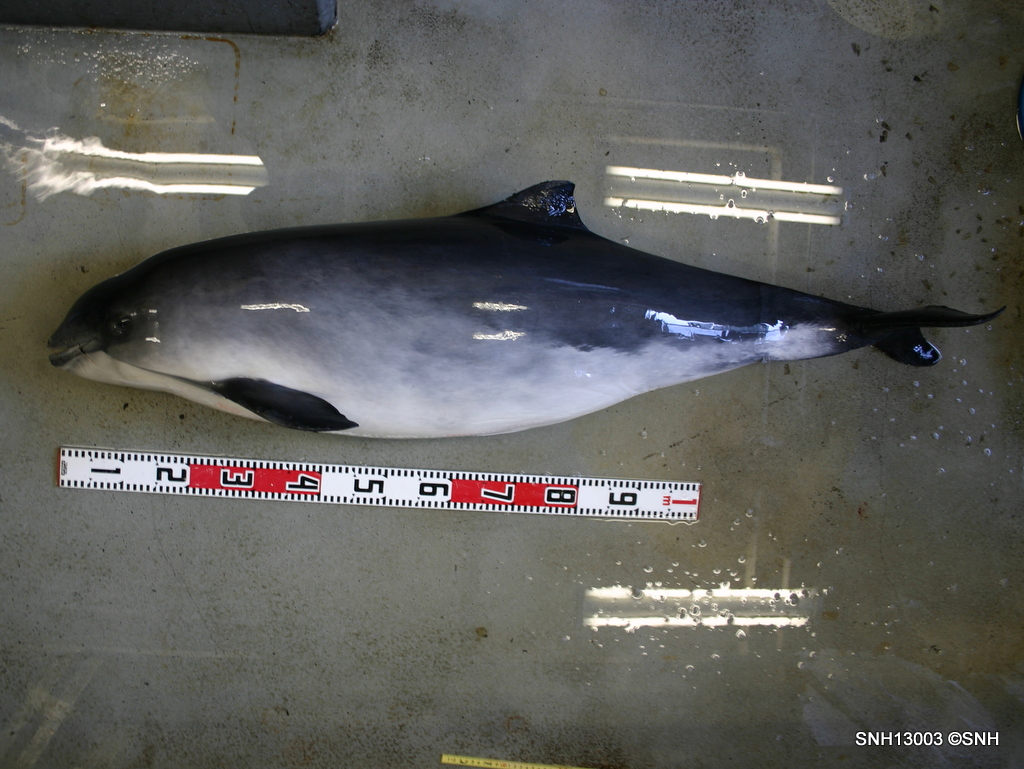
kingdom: Animalia
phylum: Chordata
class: Mammalia
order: Cetacea
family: Phocoenidae
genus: Phocoena
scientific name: Phocoena phocoena
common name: Harbour porpoise
